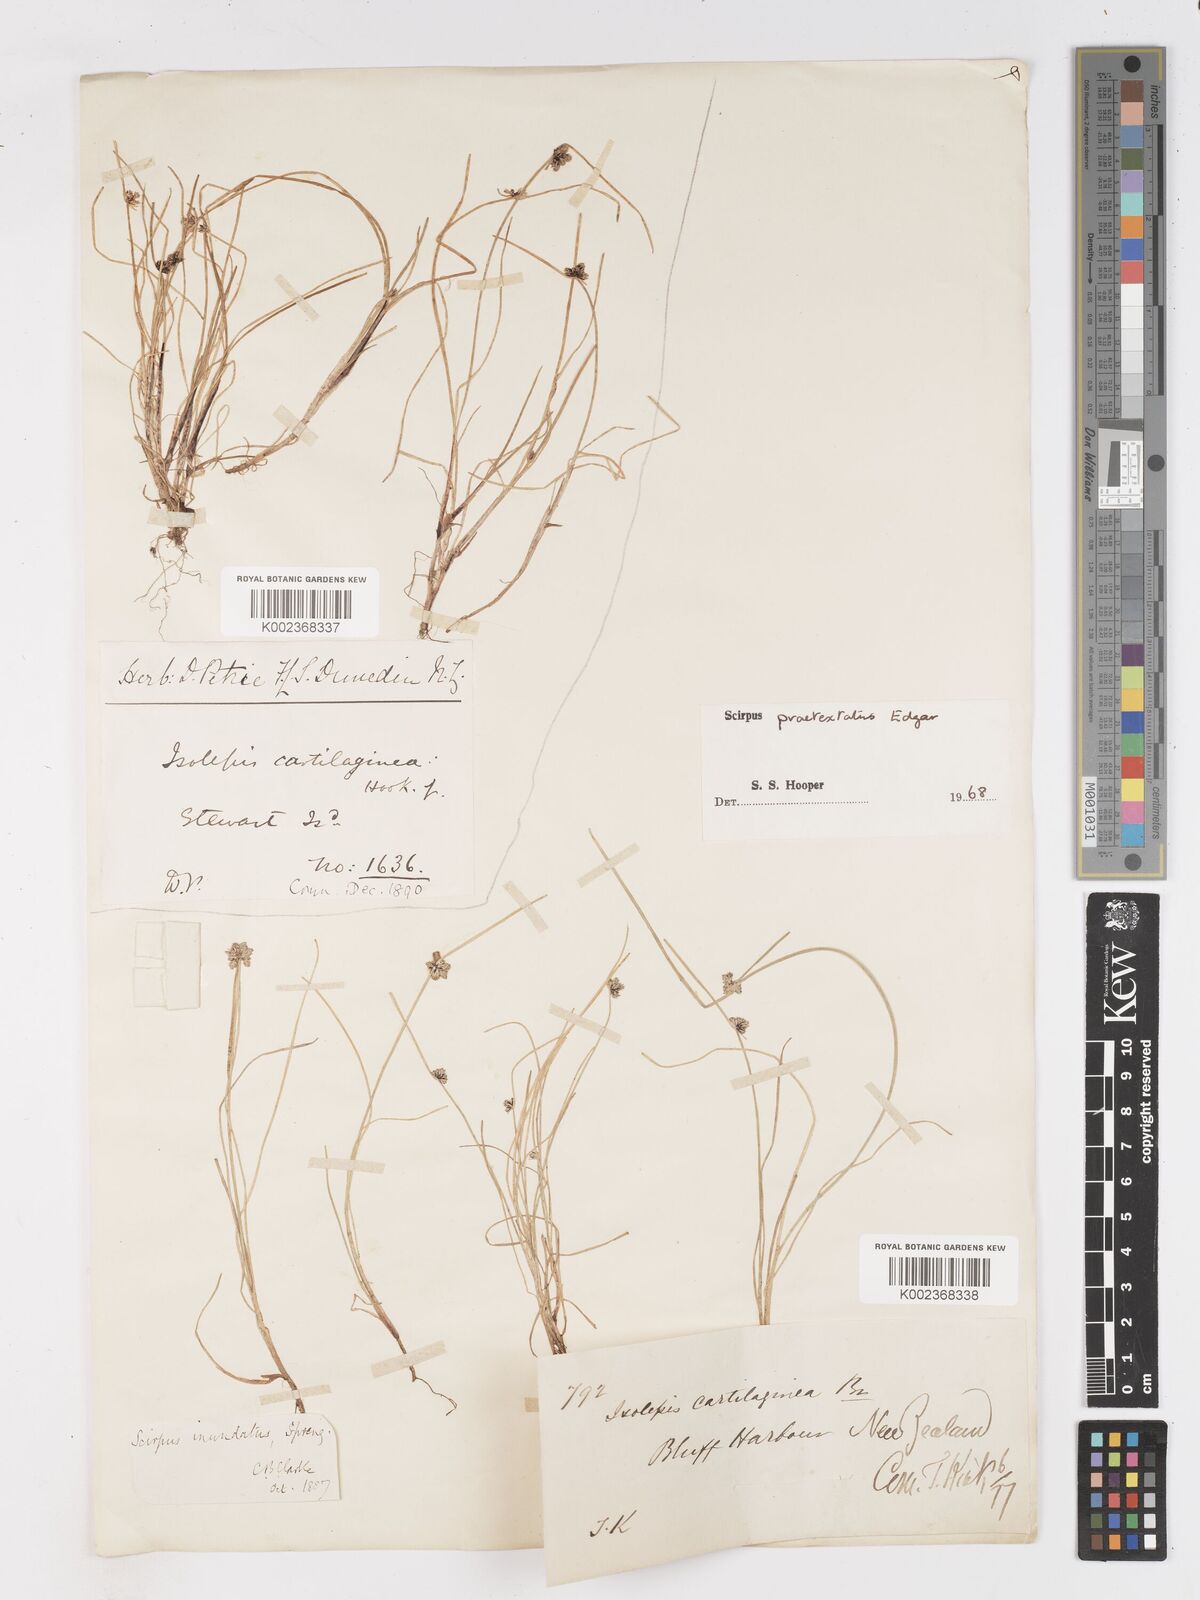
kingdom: Plantae
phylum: Tracheophyta
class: Liliopsida
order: Poales
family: Cyperaceae
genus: Isolepis
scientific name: Isolepis praetextata
